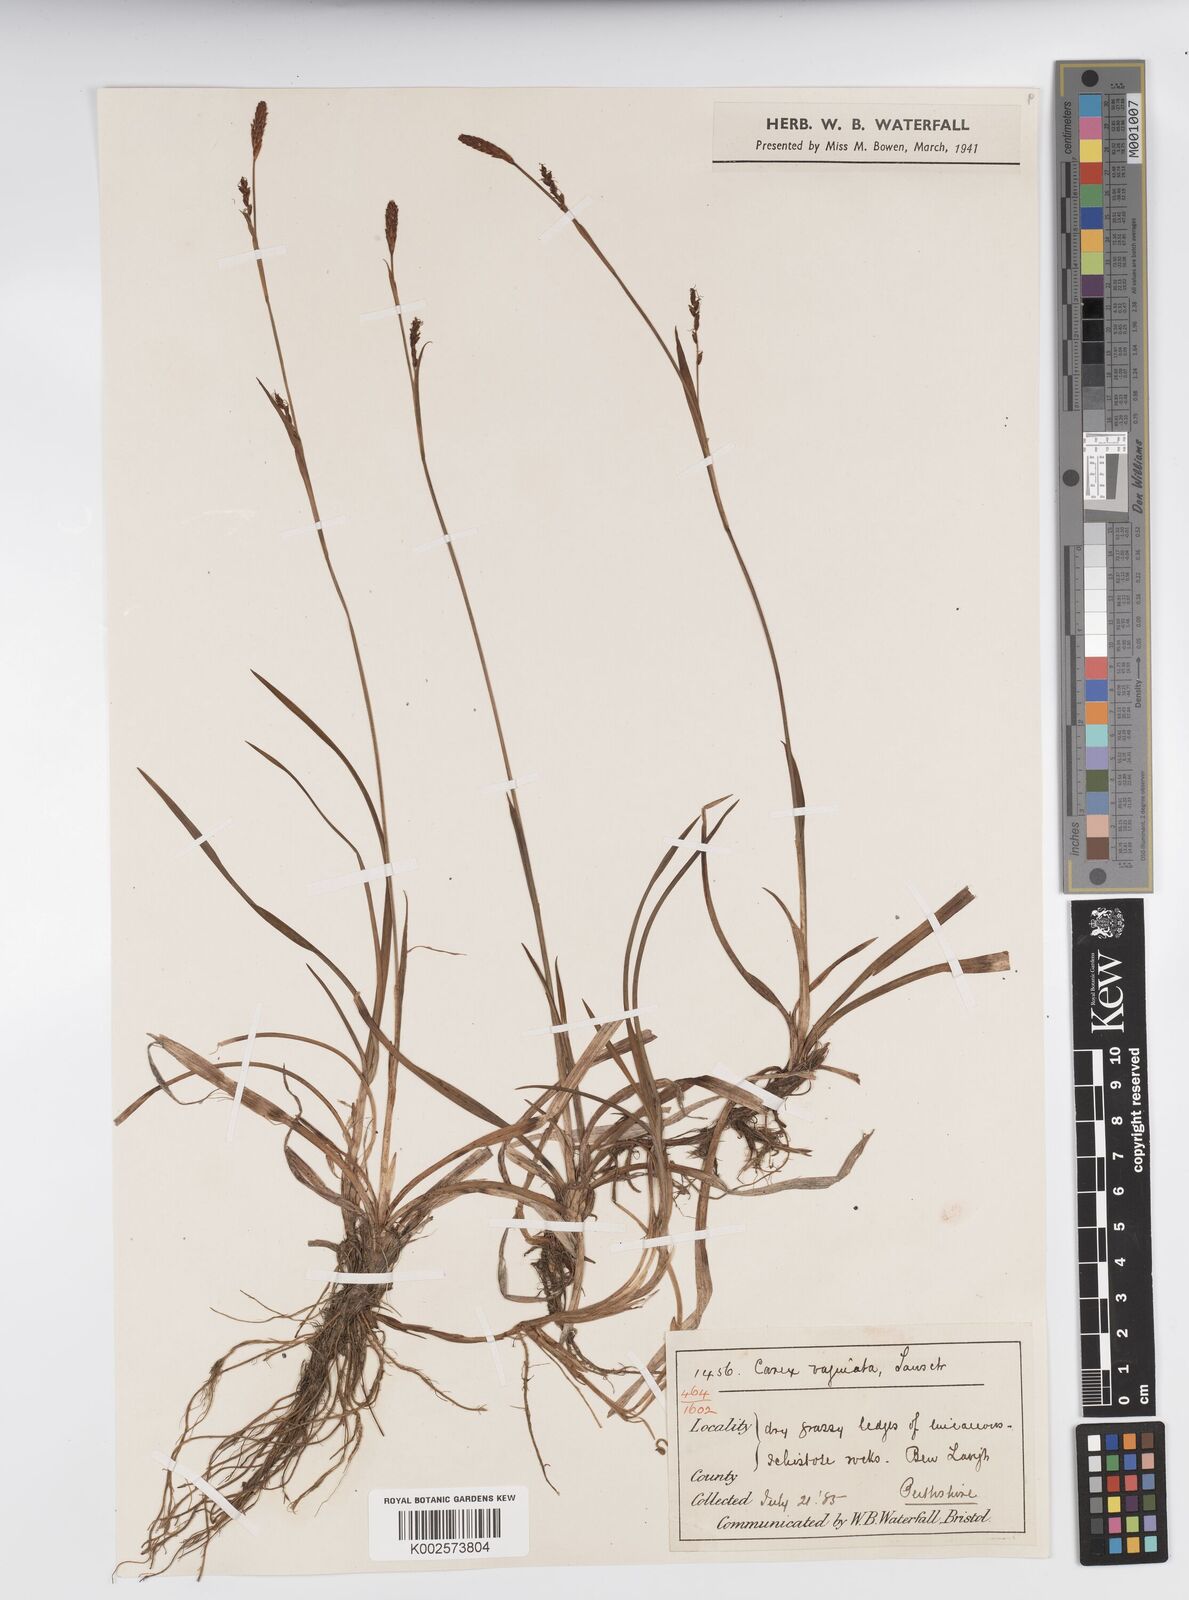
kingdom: Plantae
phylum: Tracheophyta
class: Liliopsida
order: Poales
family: Cyperaceae
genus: Carex
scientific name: Carex vaginata
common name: Sheathed sedge
